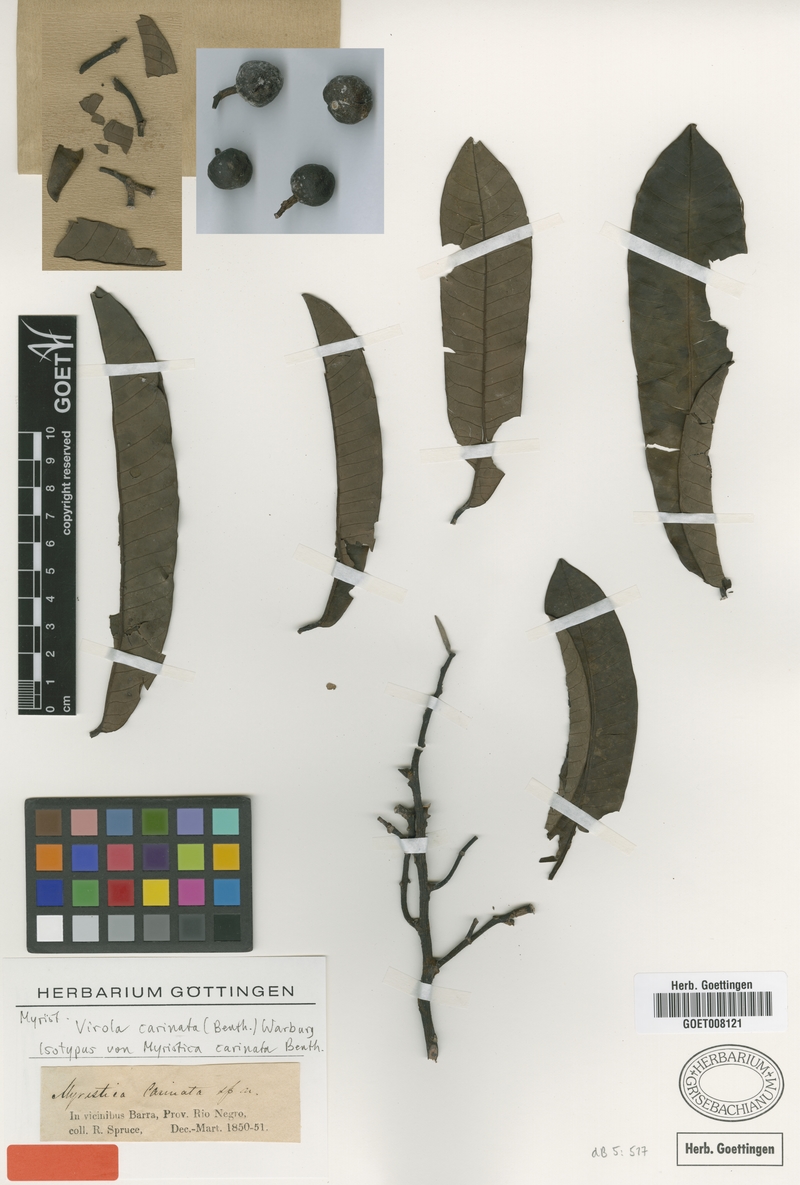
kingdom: Plantae
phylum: Tracheophyta
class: Magnoliopsida
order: Magnoliales
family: Myristicaceae
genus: Virola
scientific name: Virola carinata
